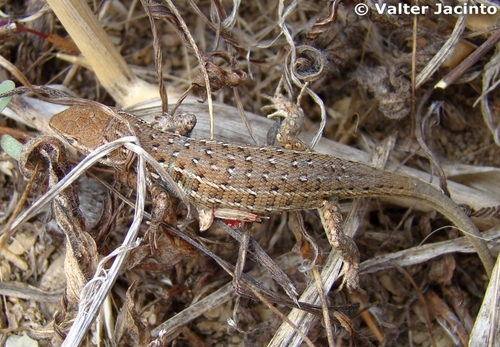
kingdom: Animalia
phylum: Chordata
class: Squamata
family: Lacertidae
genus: Psammodromus
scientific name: Psammodromus occidentalis
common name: Western psammodromus
